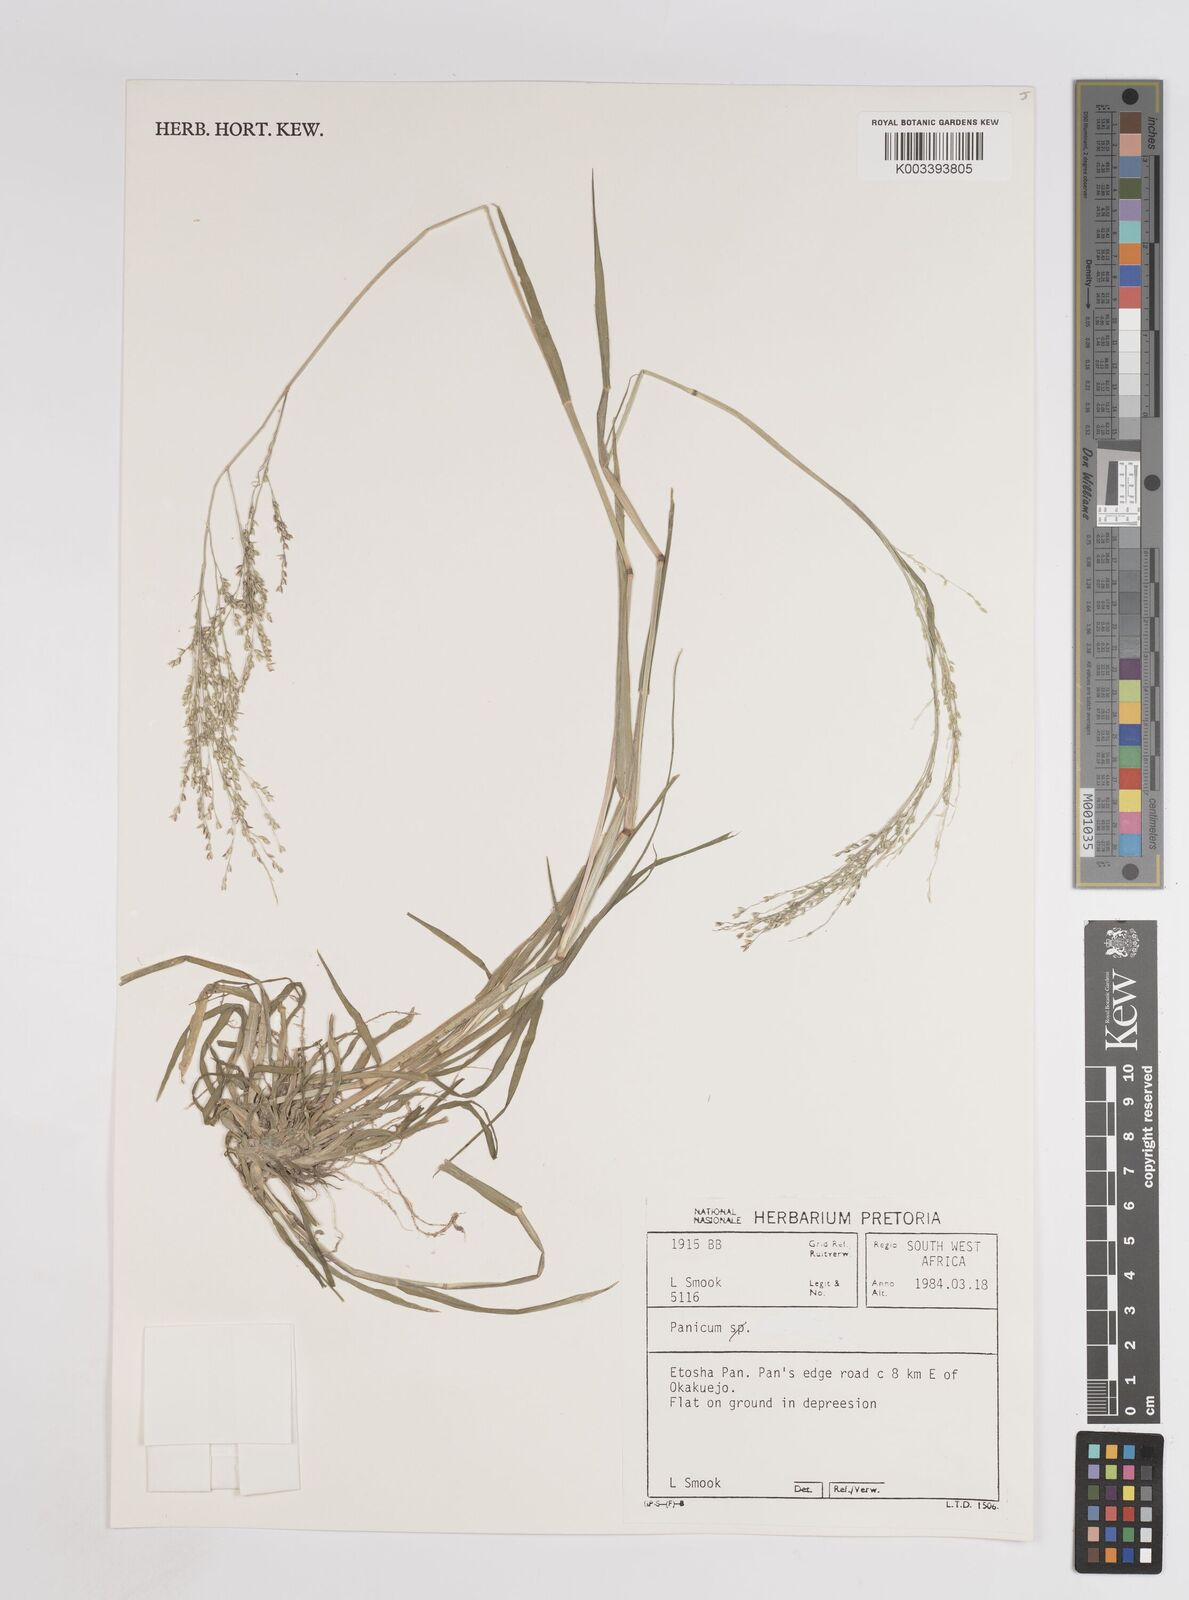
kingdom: Plantae
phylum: Tracheophyta
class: Liliopsida
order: Poales
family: Poaceae
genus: Panicum
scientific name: Panicum novemnerve
